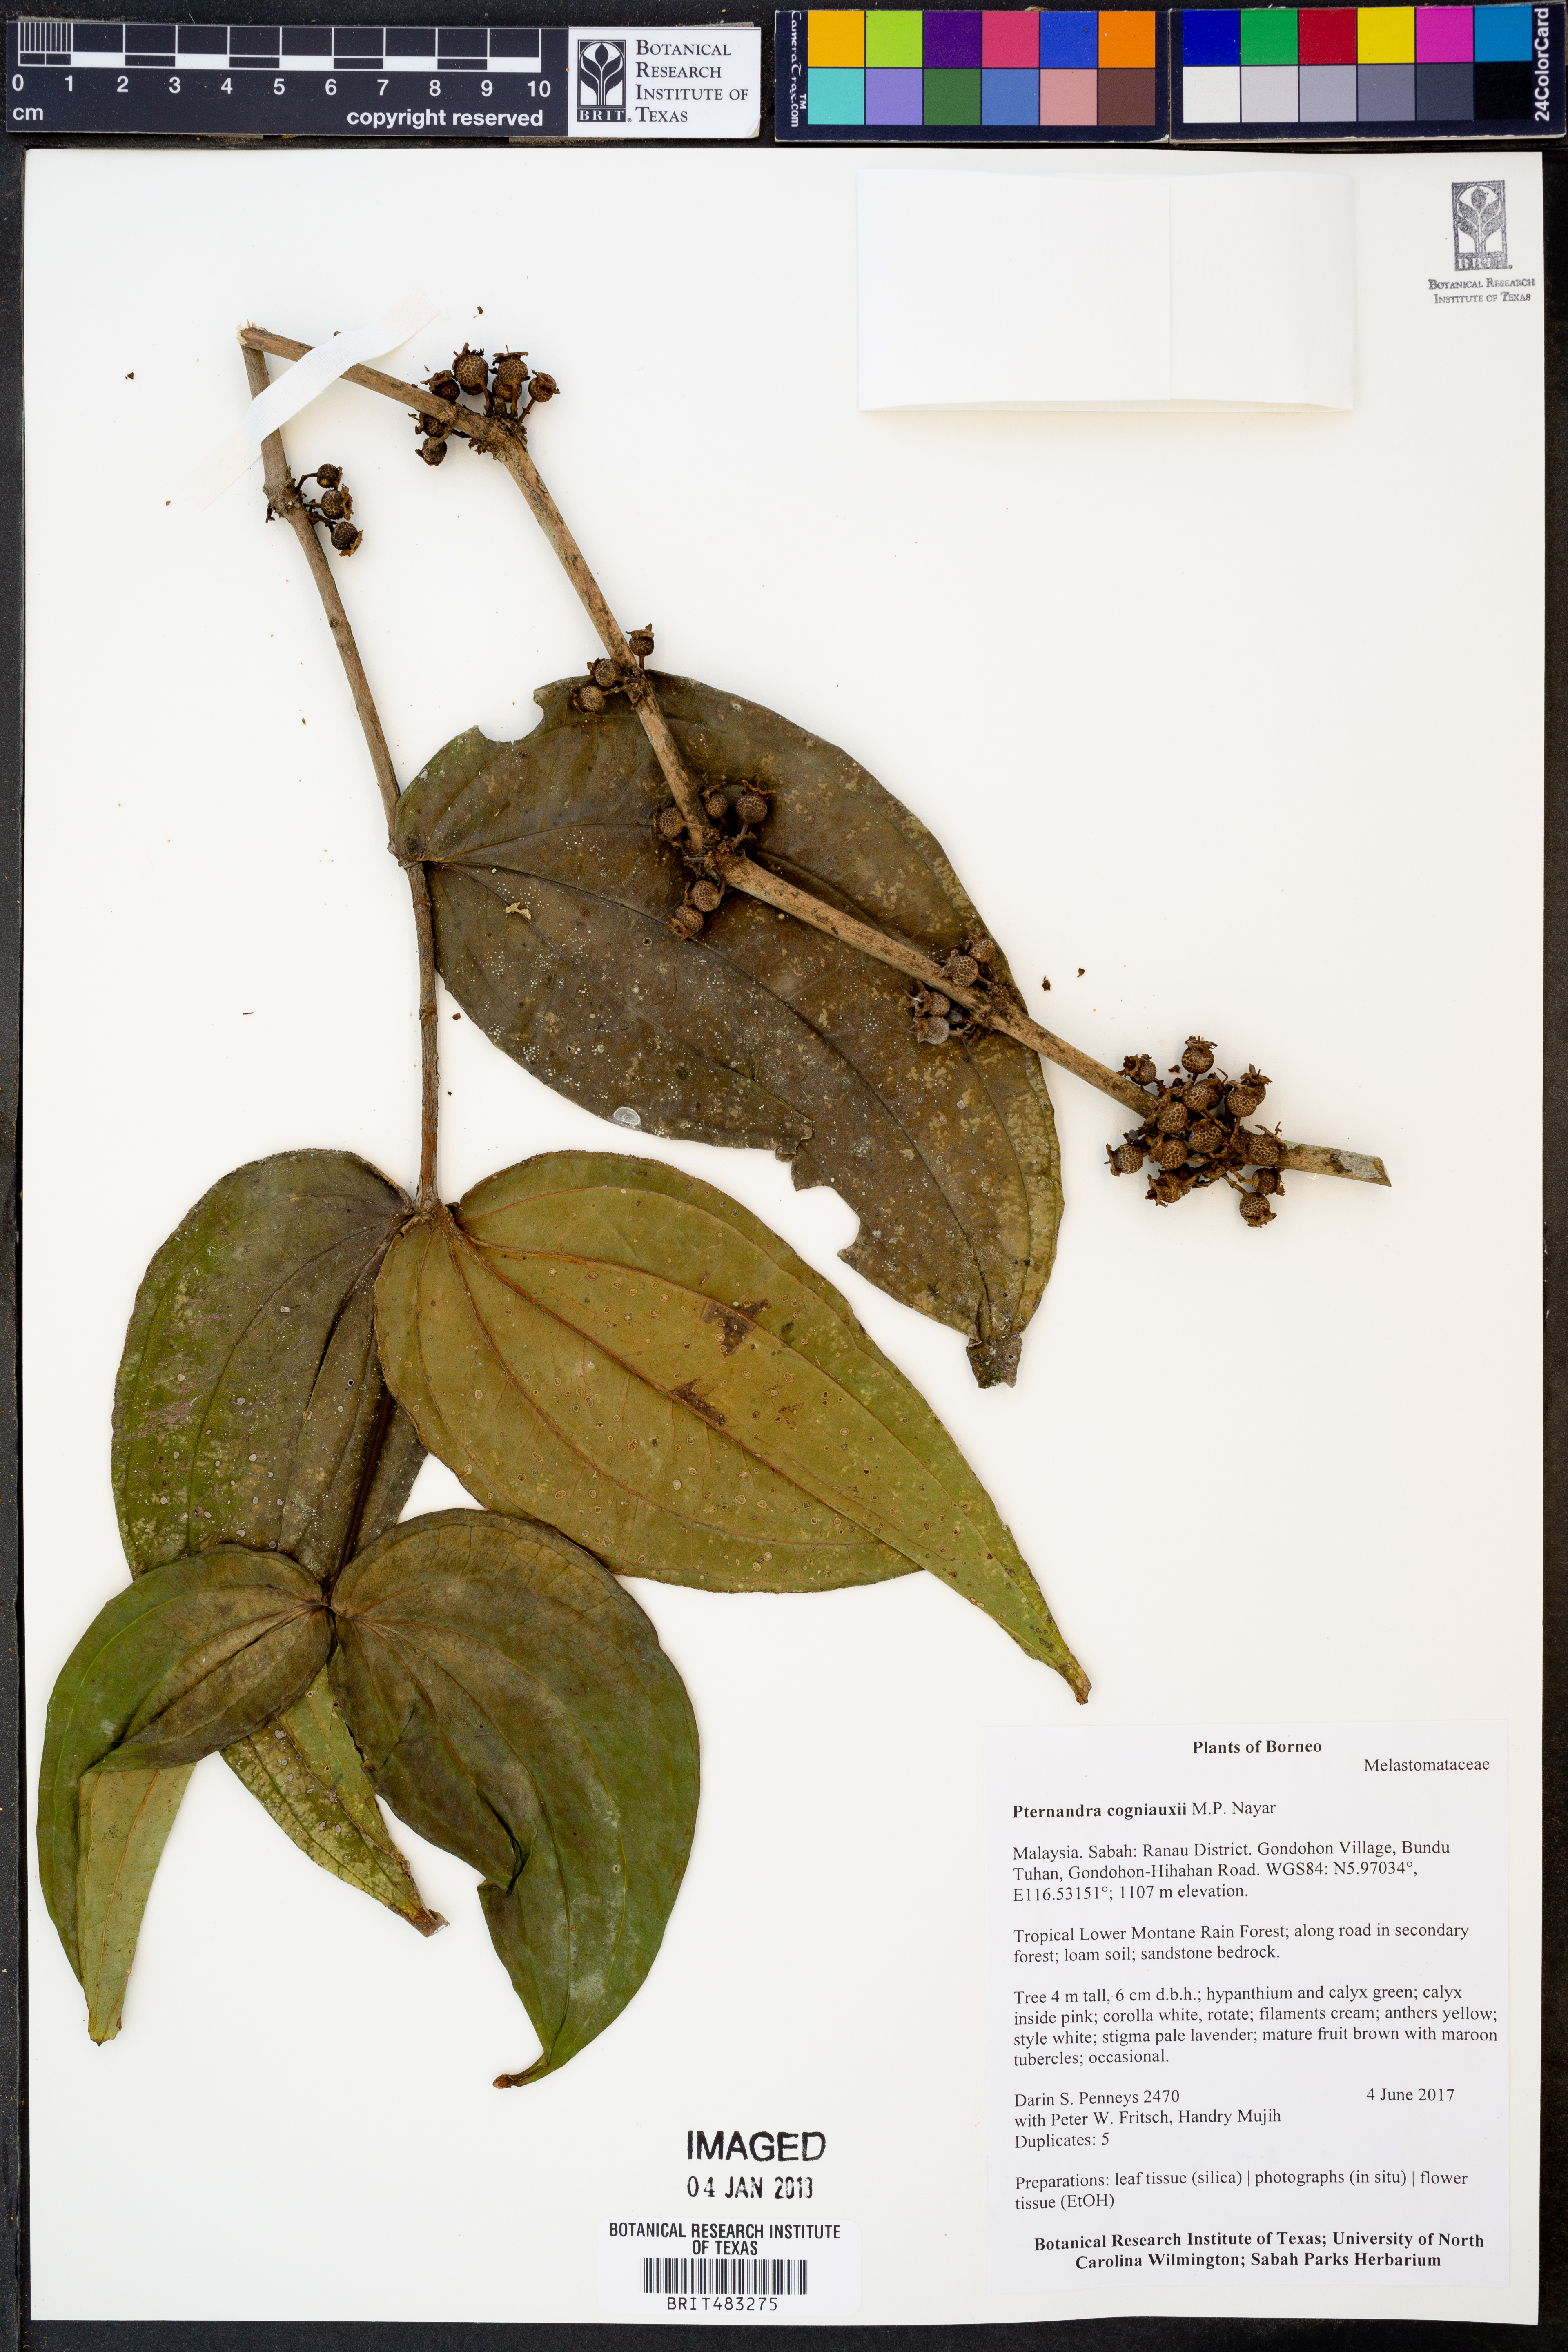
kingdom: Plantae
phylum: Tracheophyta
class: Magnoliopsida
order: Myrtales
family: Melastomataceae
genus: Pternandra
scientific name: Pternandra cogniauxii
